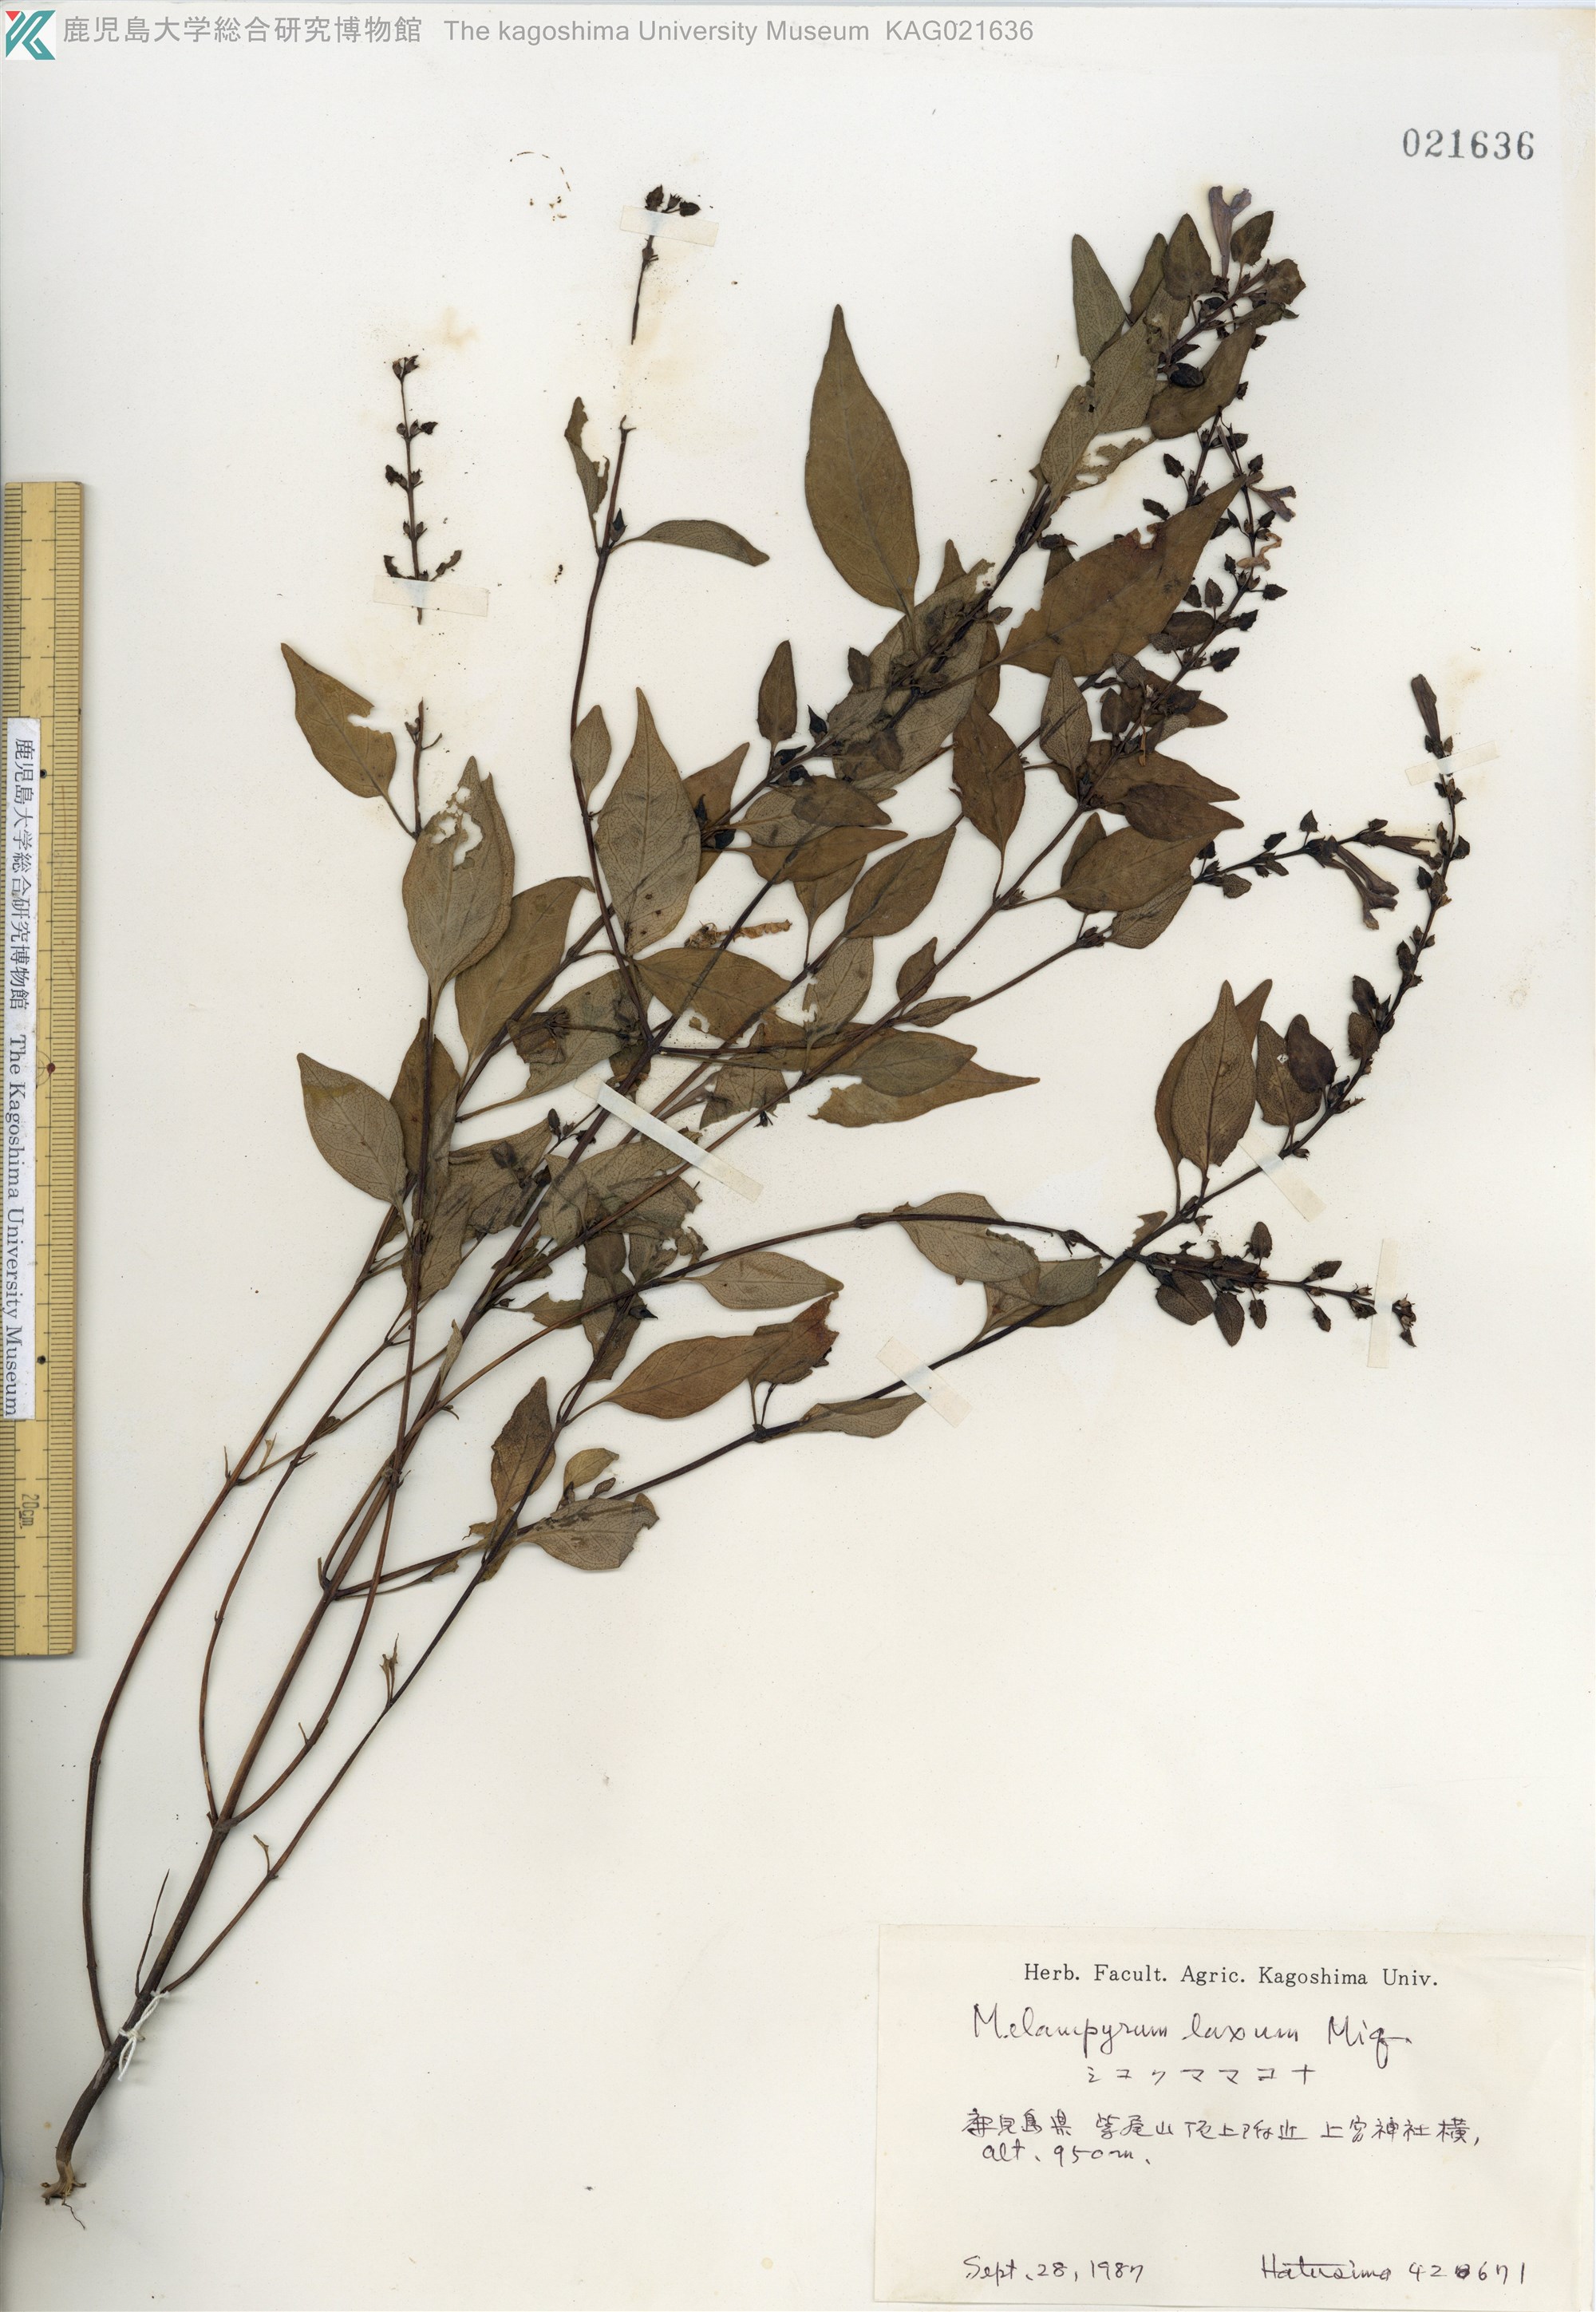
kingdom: Plantae
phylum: Tracheophyta
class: Magnoliopsida
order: Lamiales
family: Orobanchaceae
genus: Melampyrum
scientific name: Melampyrum laxum
